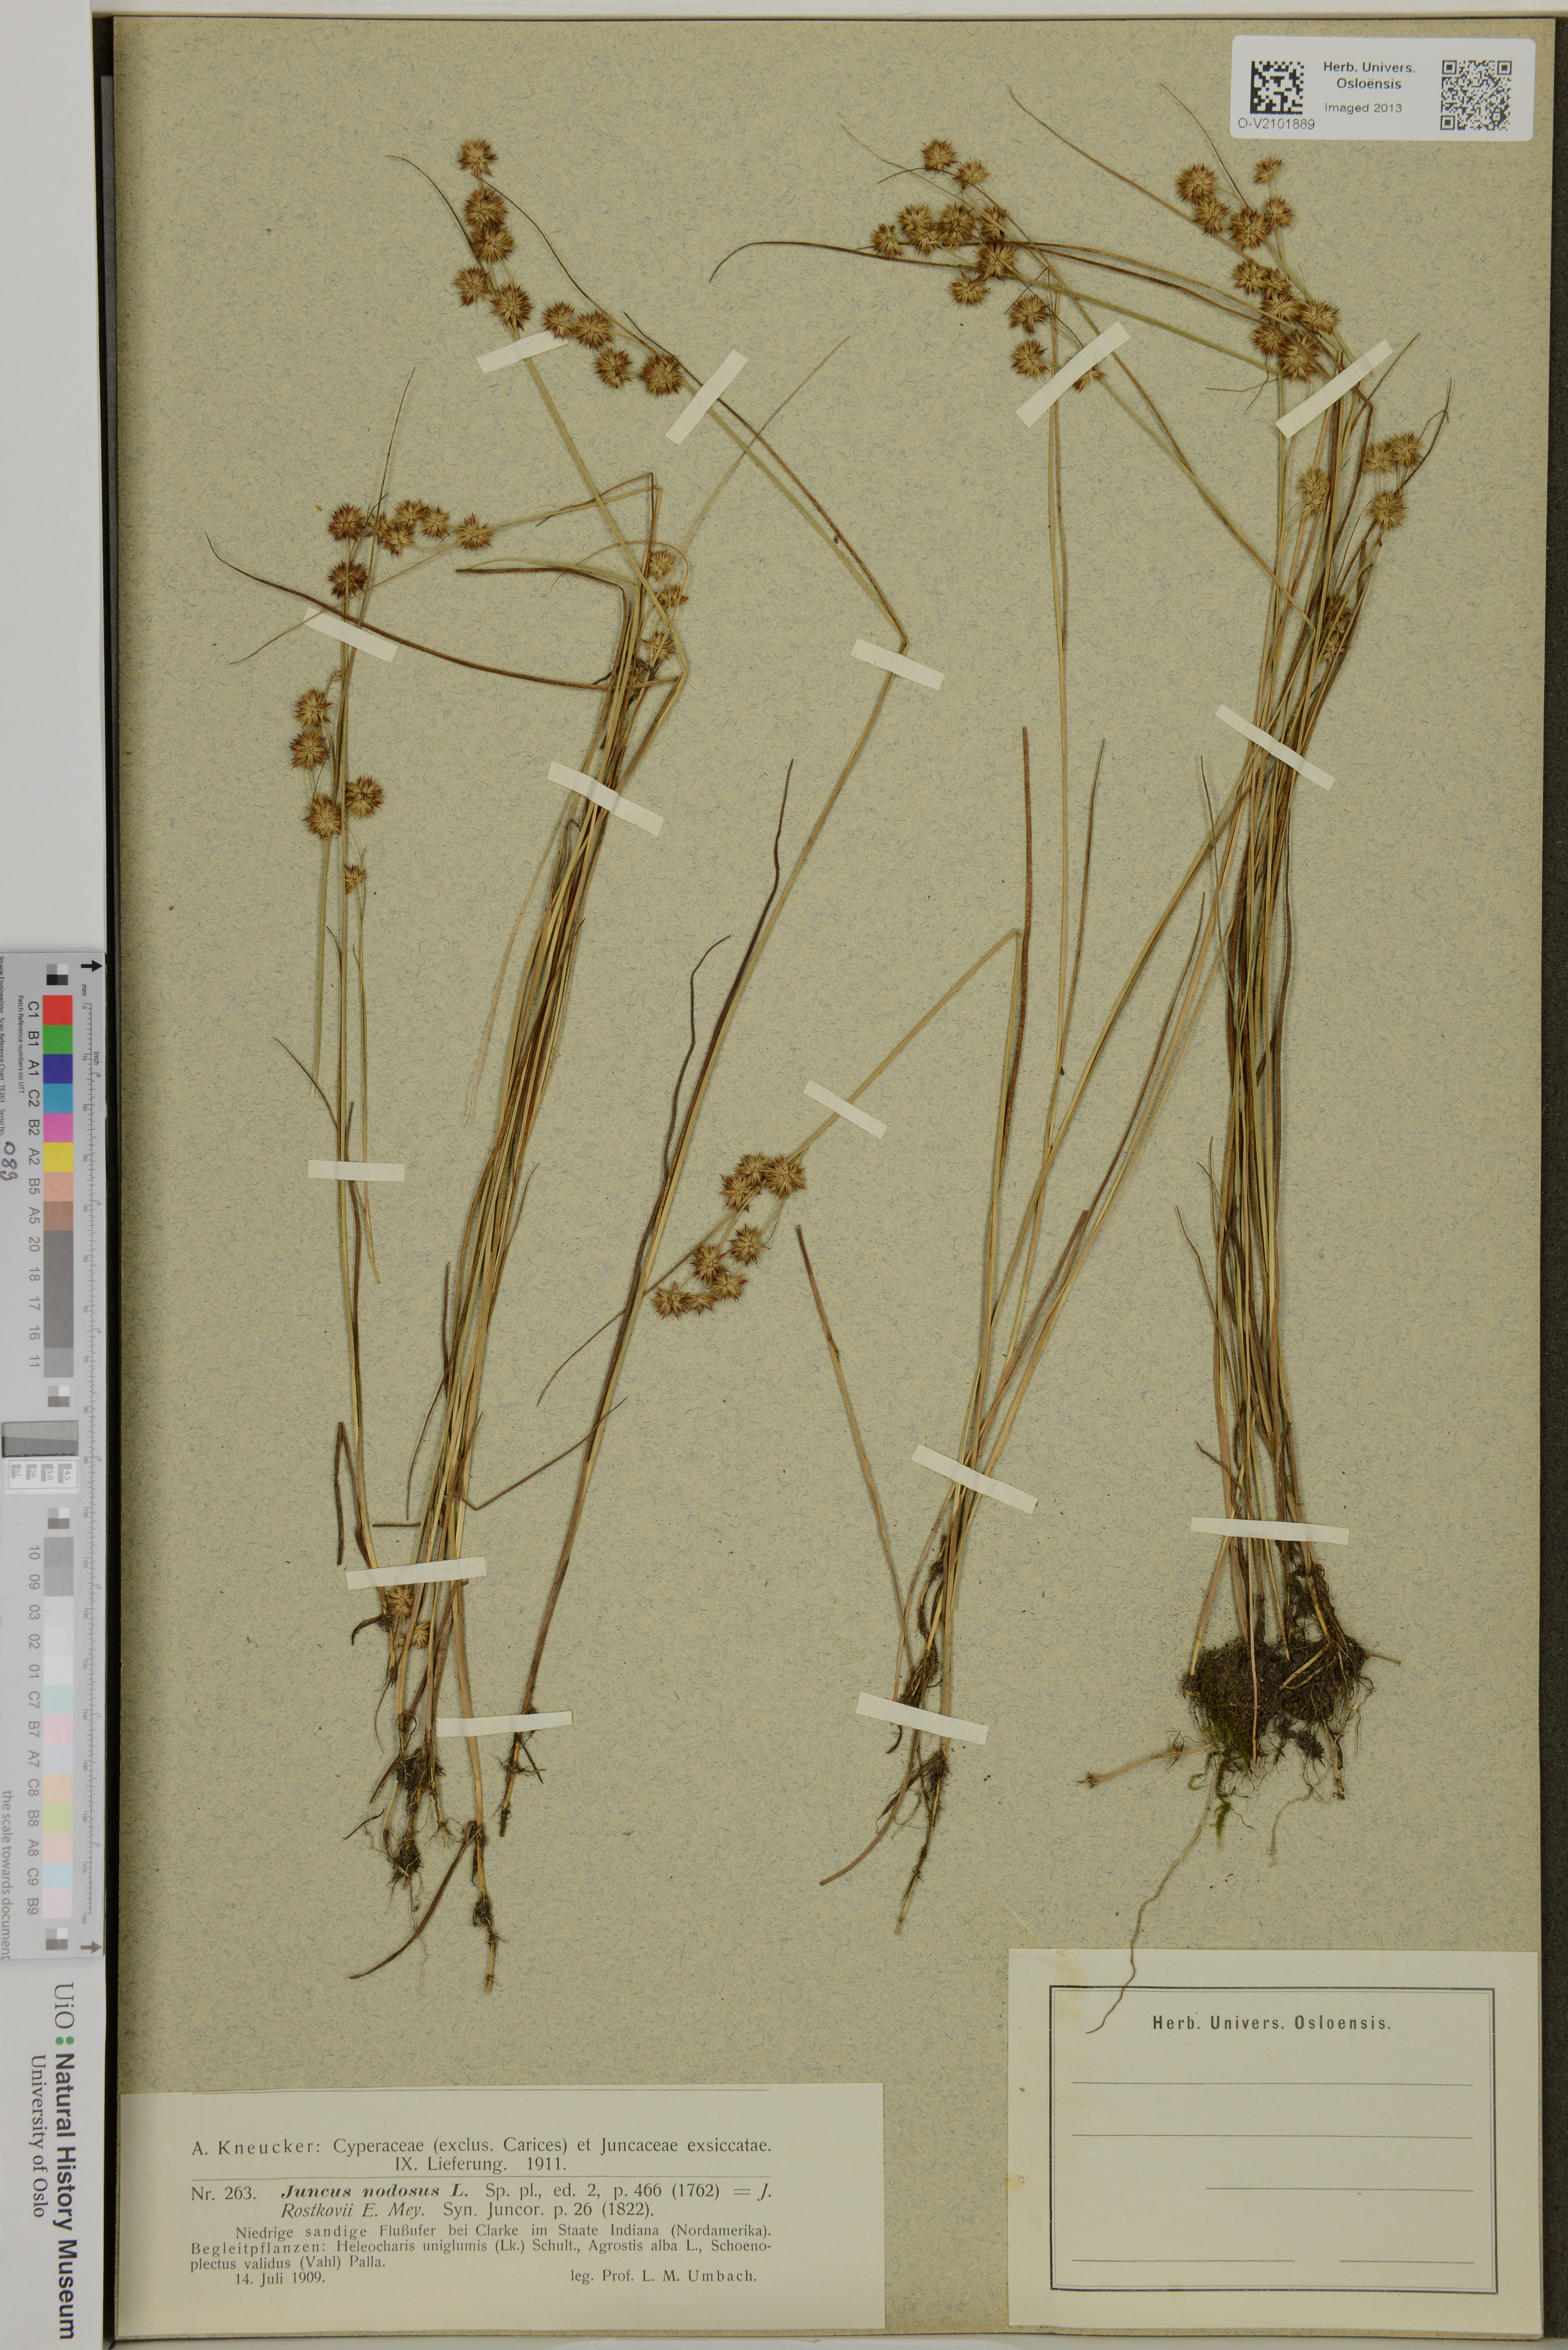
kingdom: Plantae
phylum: Tracheophyta
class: Liliopsida
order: Poales
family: Juncaceae
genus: Juncus
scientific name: Juncus nodosus
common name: Knotted rush
